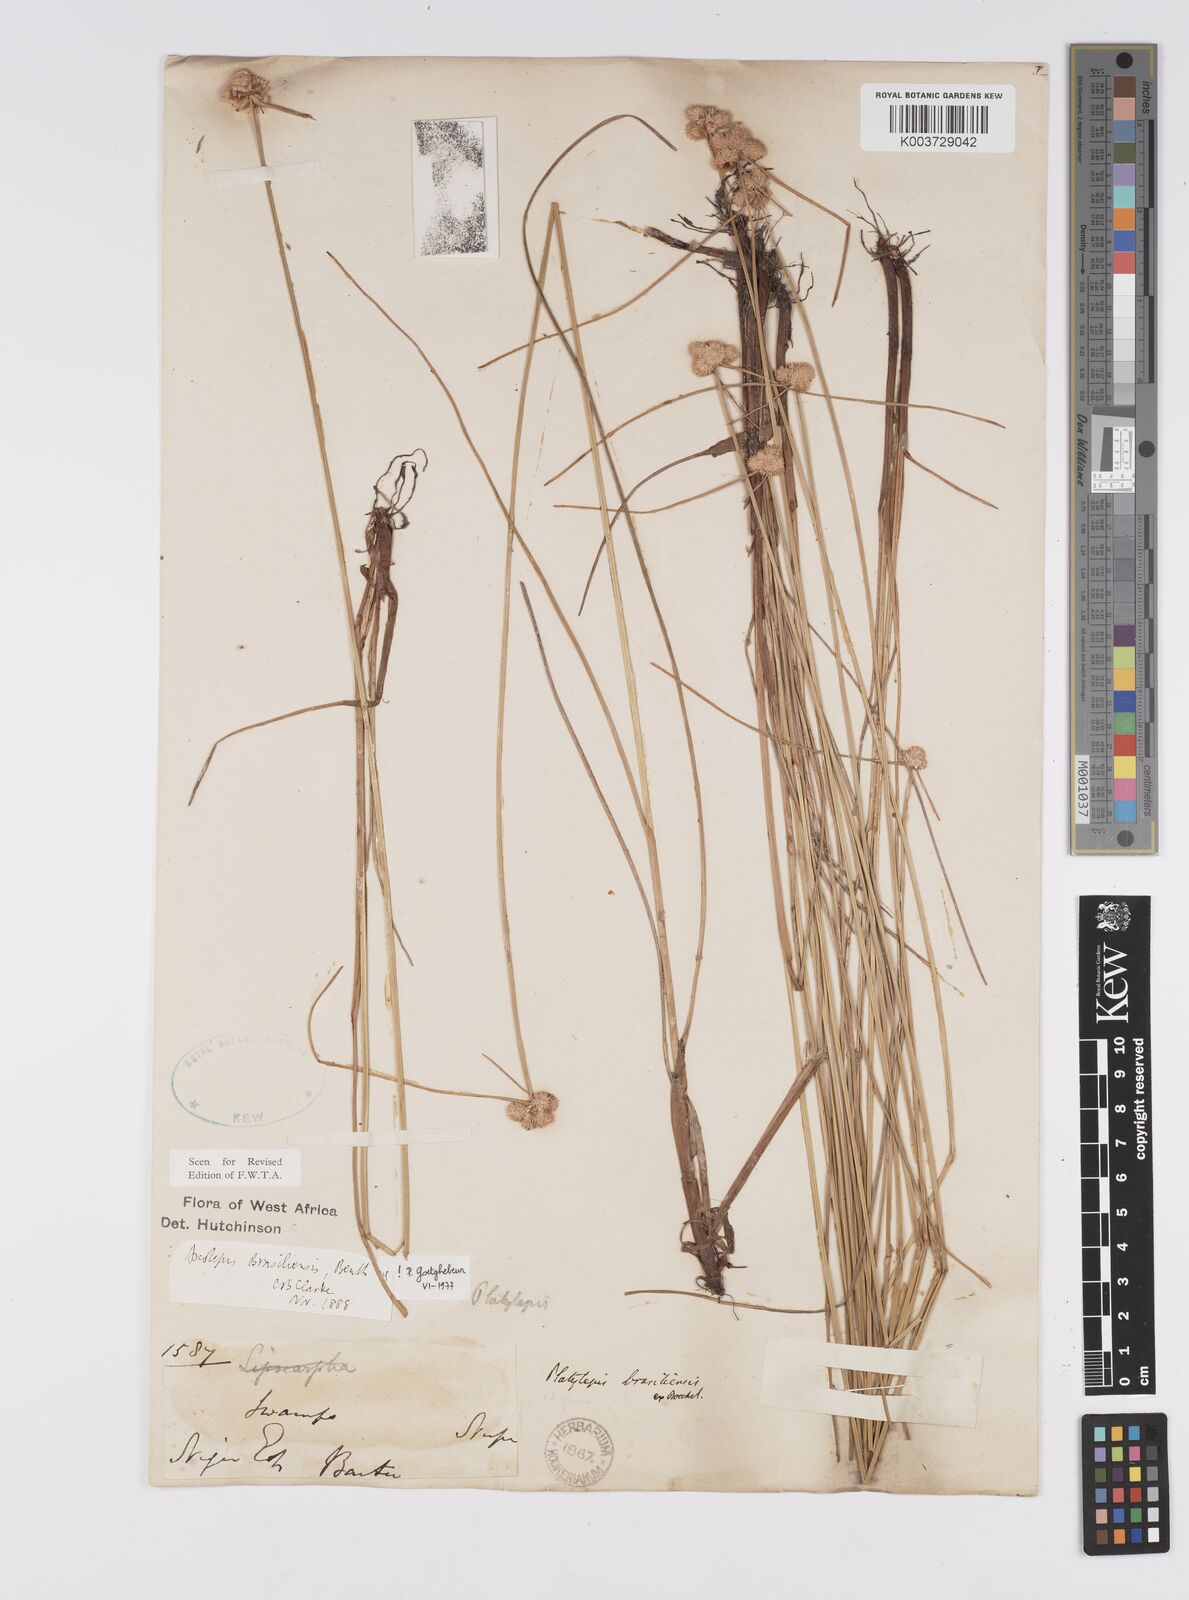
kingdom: Plantae
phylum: Tracheophyta
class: Liliopsida
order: Poales
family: Cyperaceae
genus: Cyperus
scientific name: Cyperus brasiliensis
